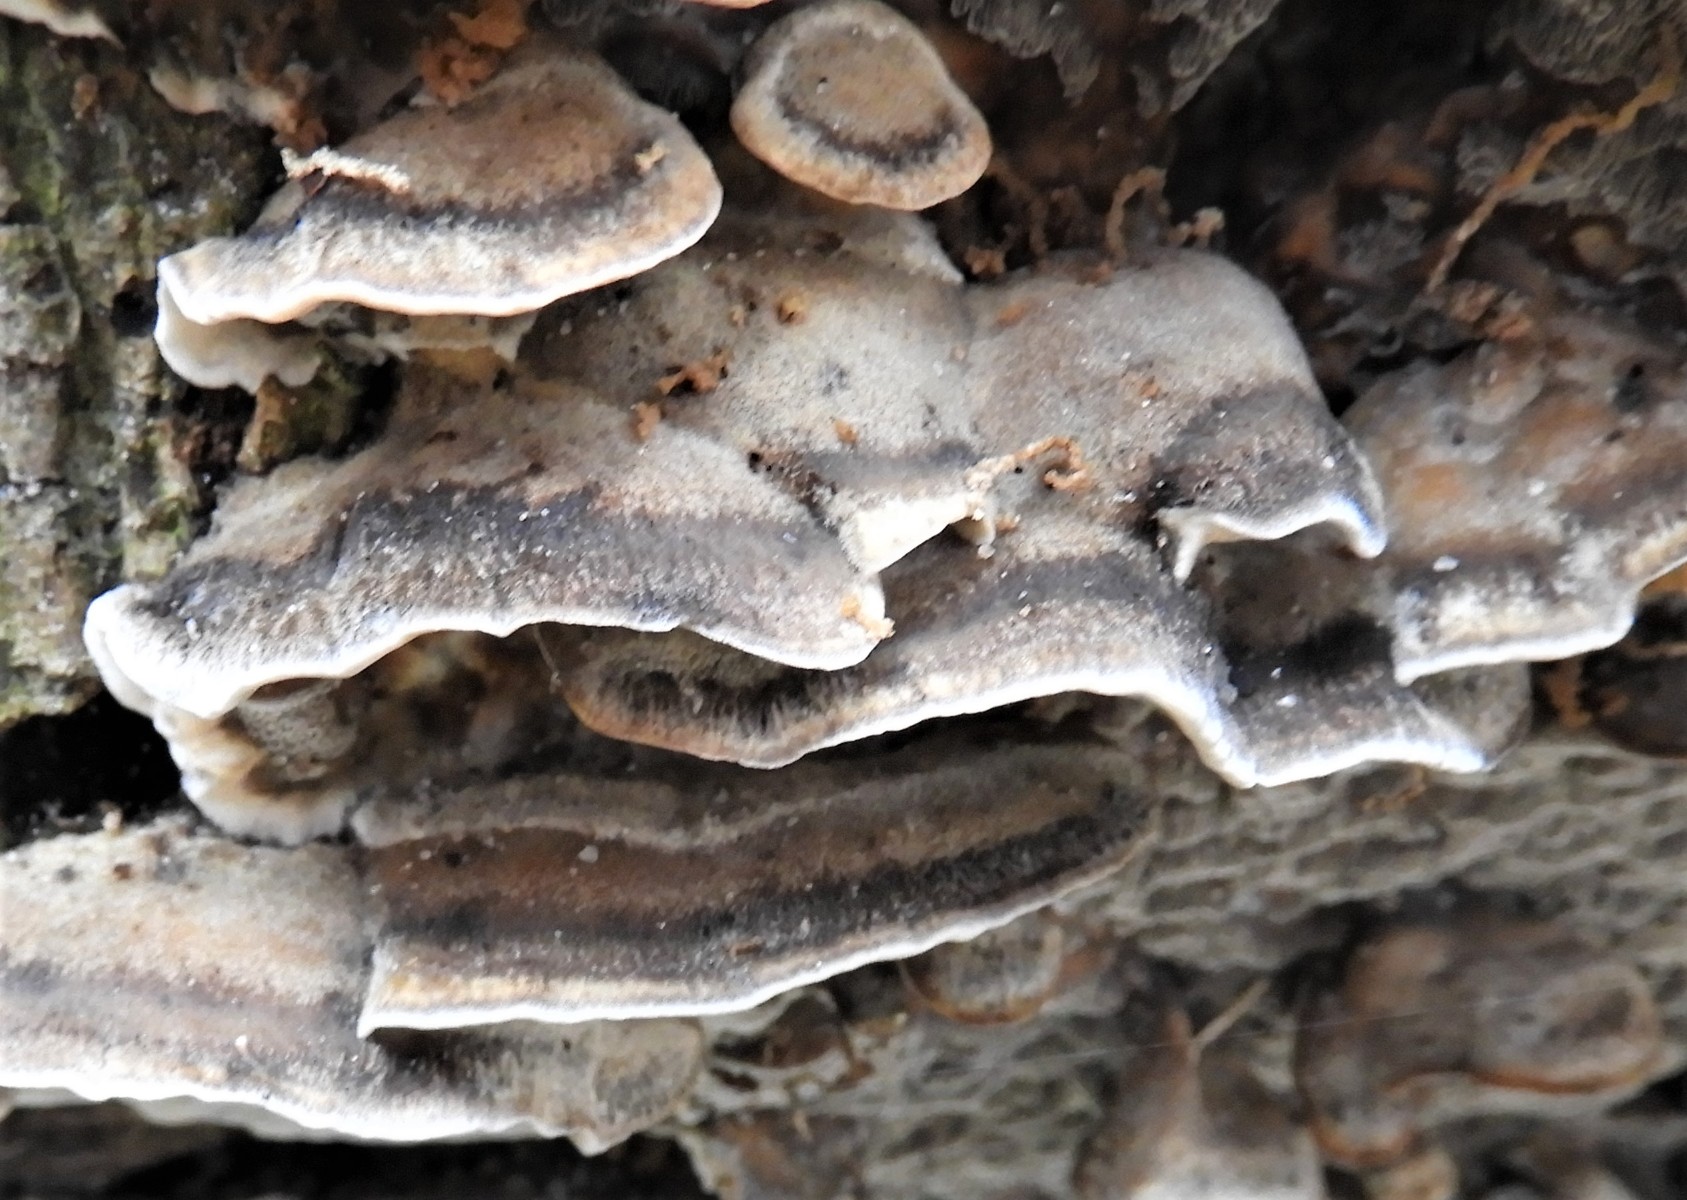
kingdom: Fungi
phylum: Basidiomycota
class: Agaricomycetes
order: Polyporales
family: Phanerochaetaceae
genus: Bjerkandera
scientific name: Bjerkandera fumosa
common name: grågul sodporesvamp
